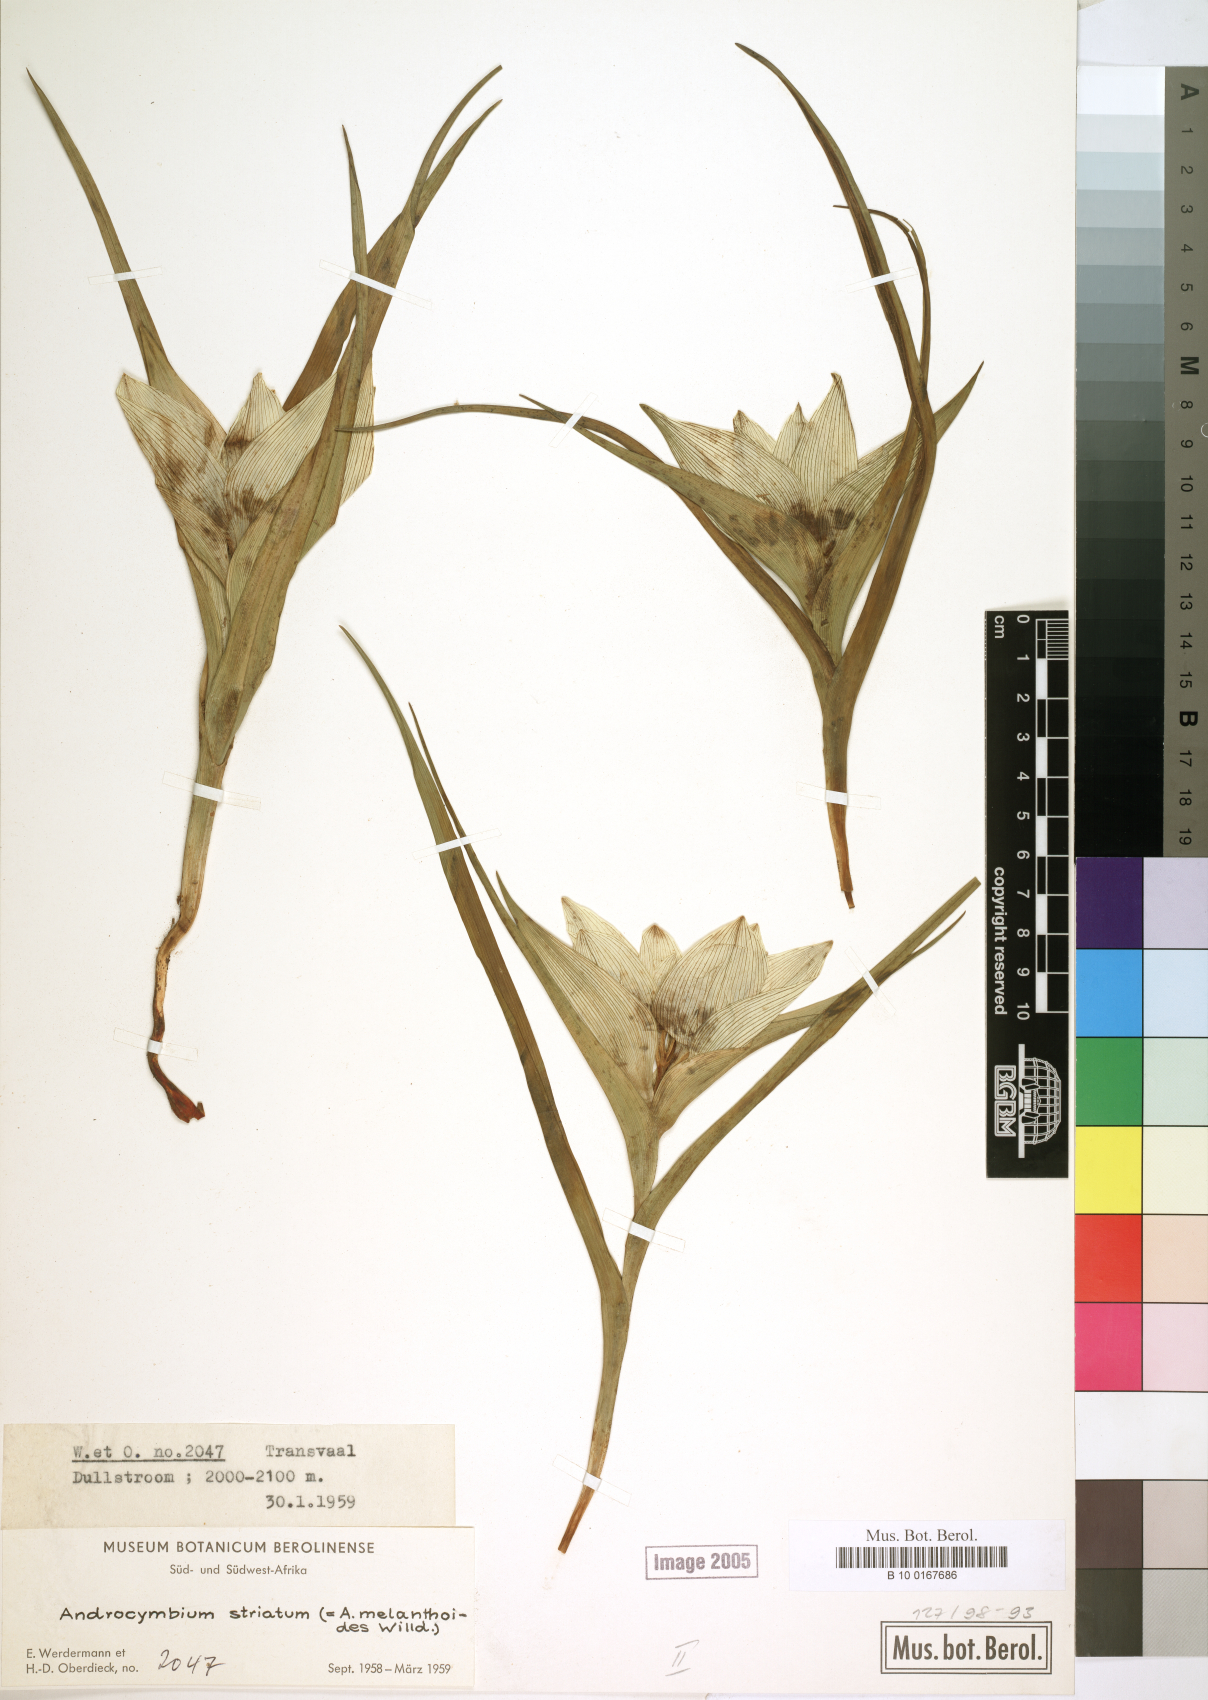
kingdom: Plantae
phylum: Tracheophyta
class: Liliopsida
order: Liliales
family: Colchicaceae
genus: Colchicum
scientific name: Colchicum striatum
